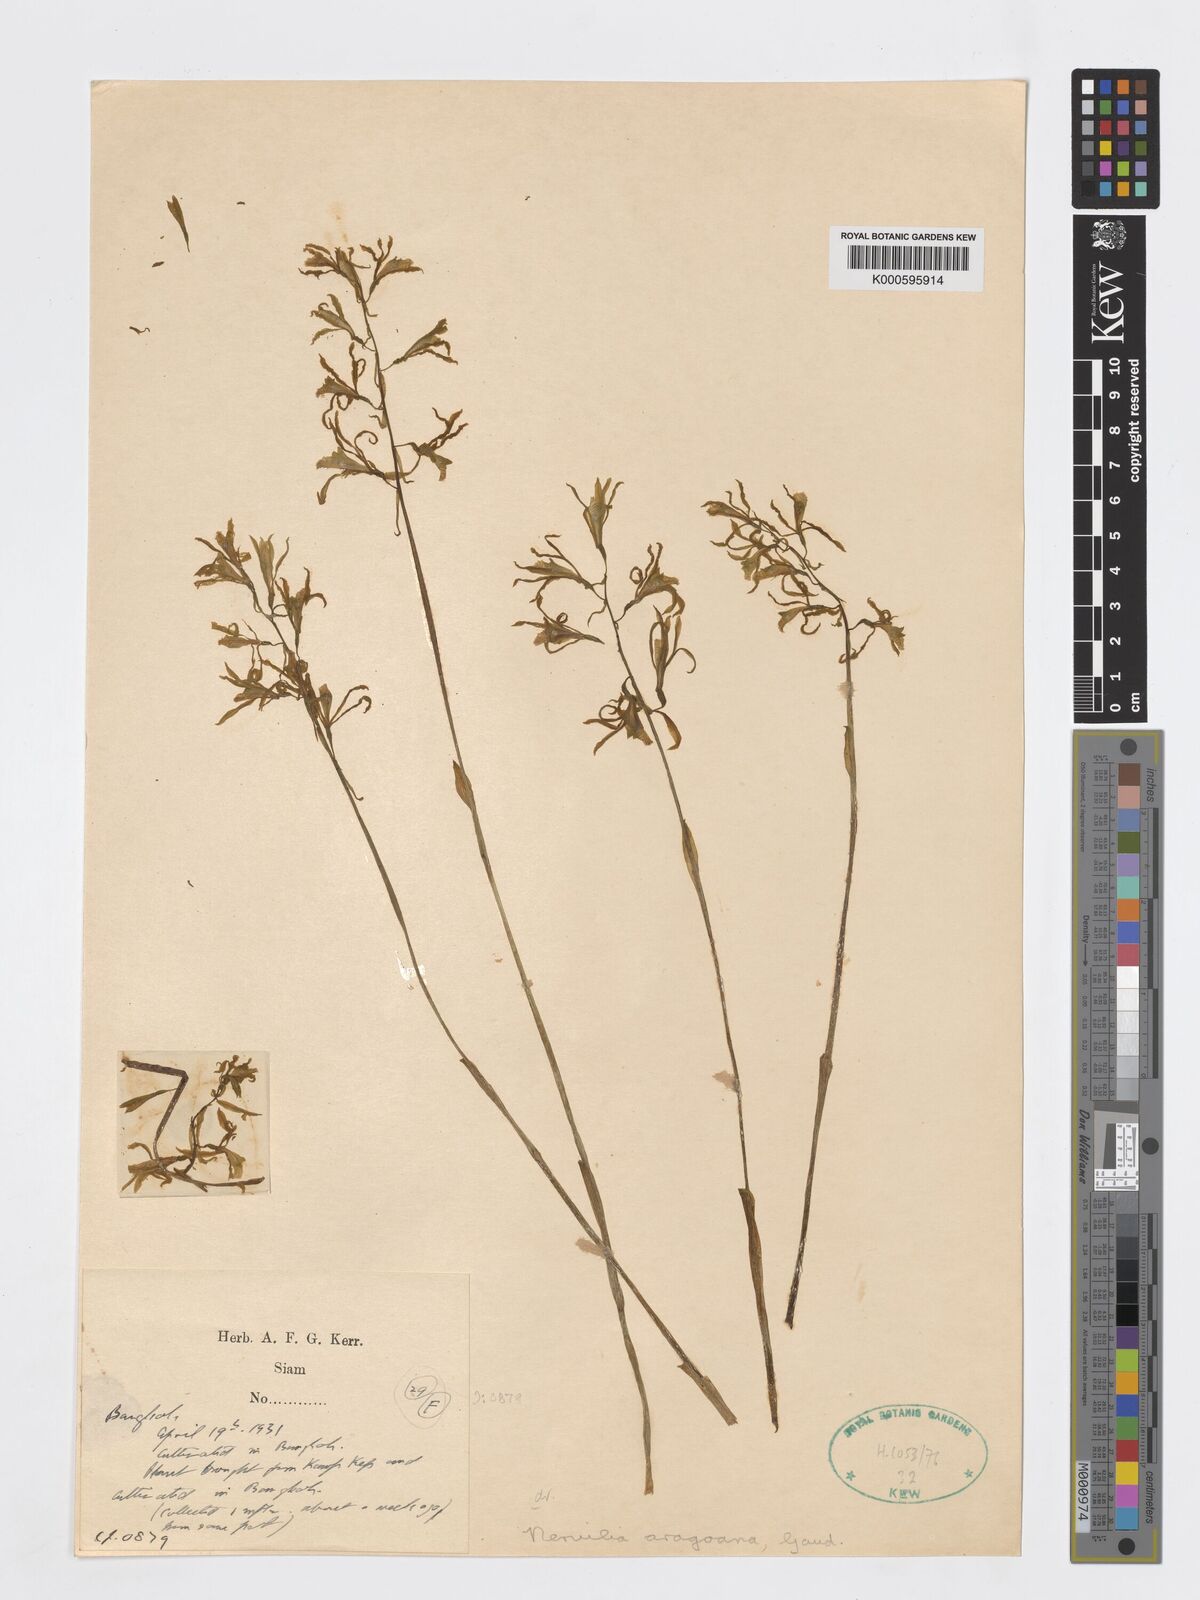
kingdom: Plantae
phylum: Tracheophyta
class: Liliopsida
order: Asparagales
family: Orchidaceae
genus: Nervilia
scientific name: Nervilia concolor
